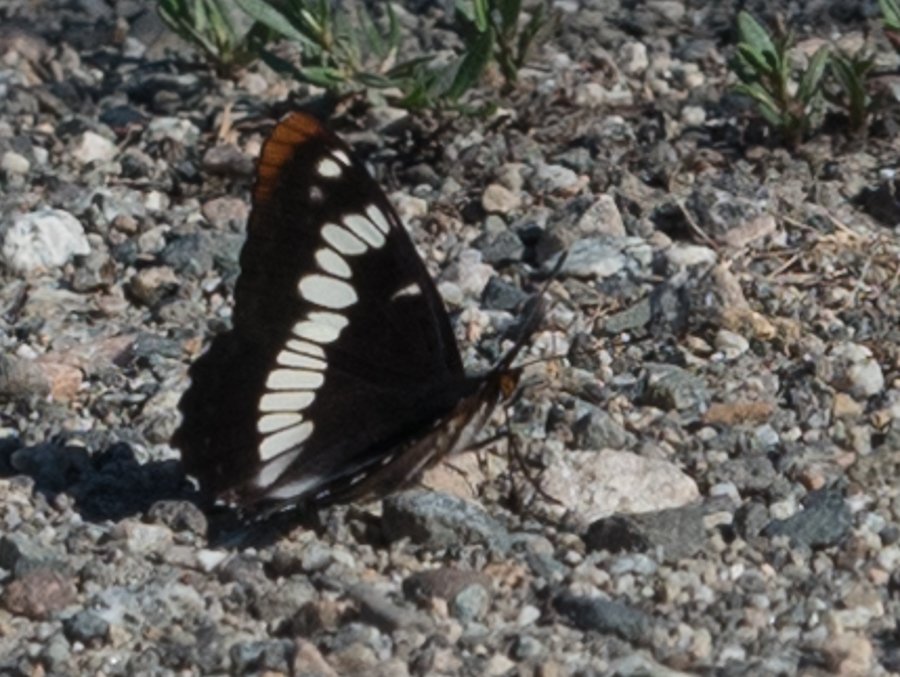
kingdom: Animalia
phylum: Arthropoda
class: Insecta
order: Lepidoptera
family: Nymphalidae
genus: Limenitis
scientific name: Limenitis lorquini
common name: Lorquin's Admiral
